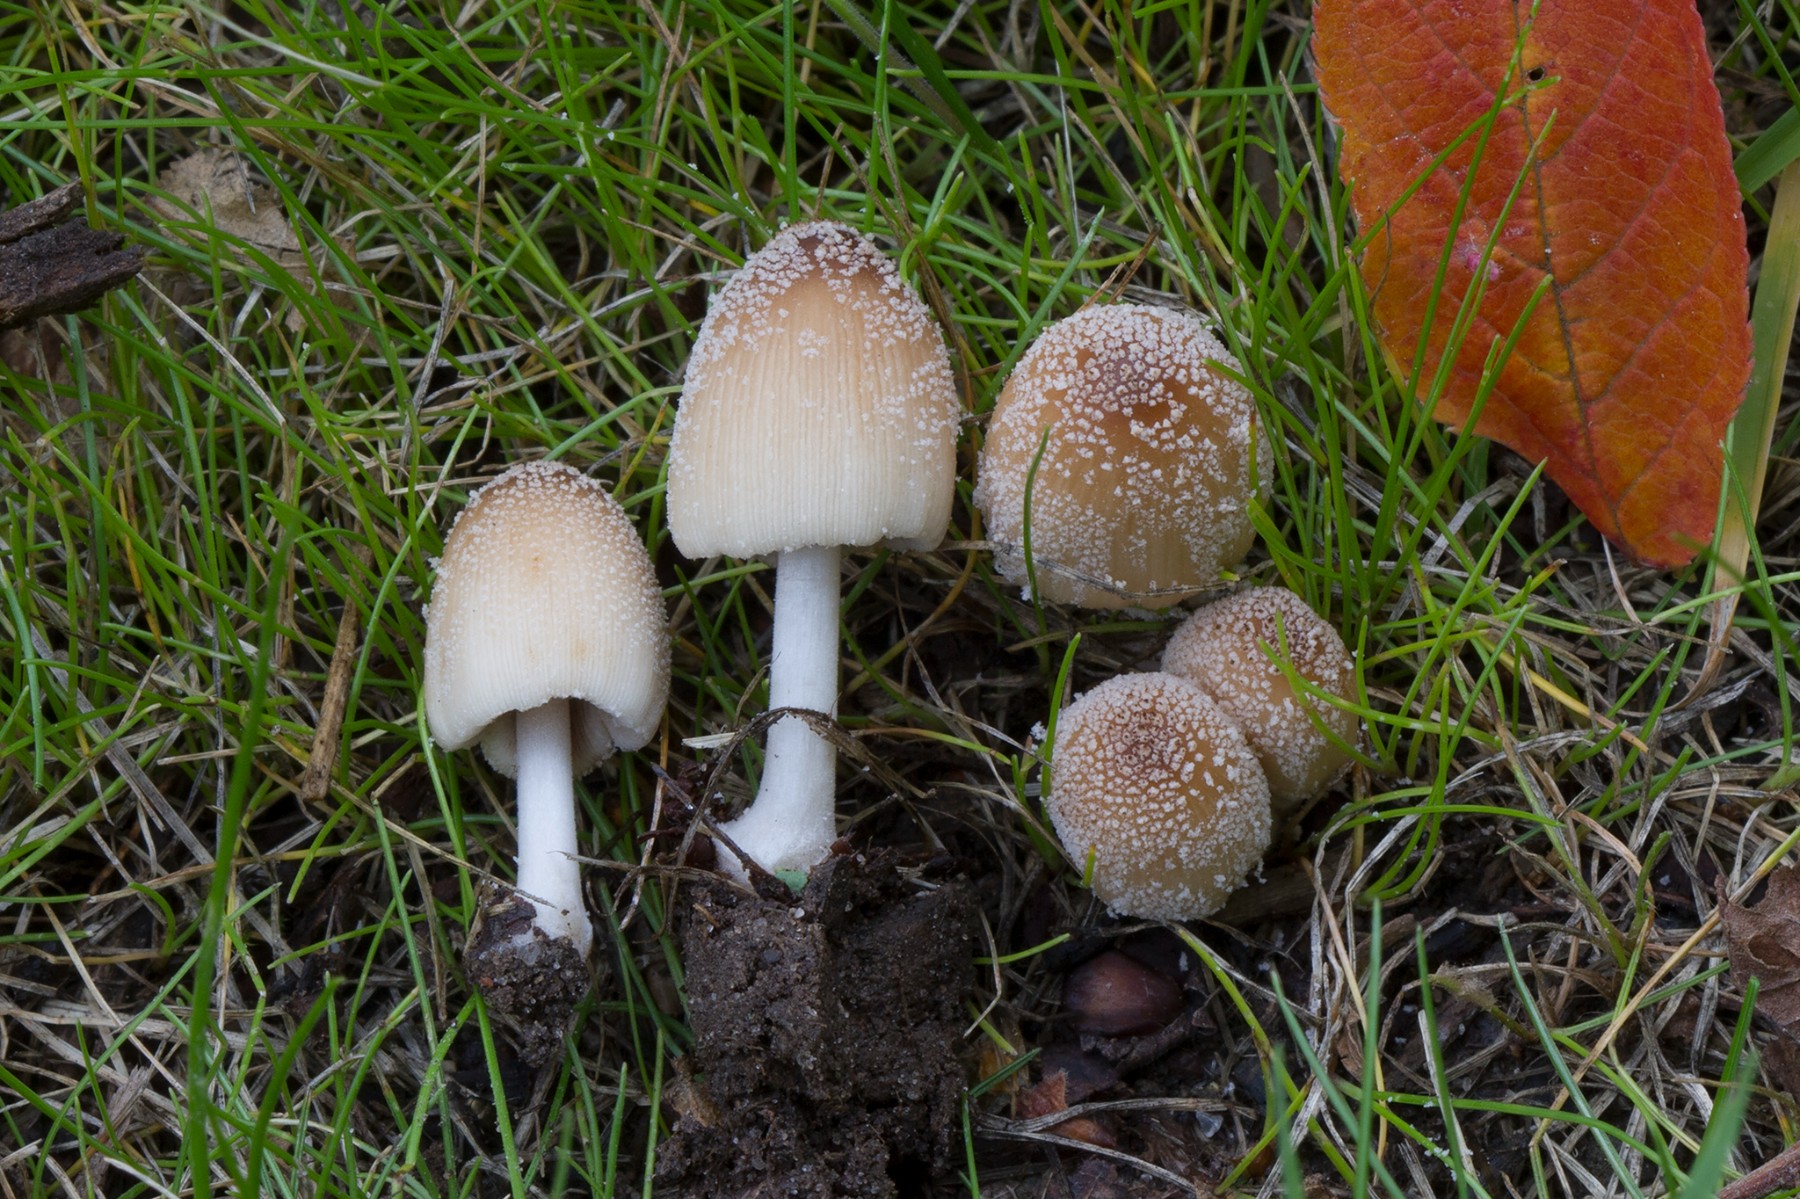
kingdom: Fungi
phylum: Basidiomycota
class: Agaricomycetes
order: Agaricales
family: Psathyrellaceae
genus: Coprinellus
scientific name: Coprinellus radians
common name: grynet blækhat
